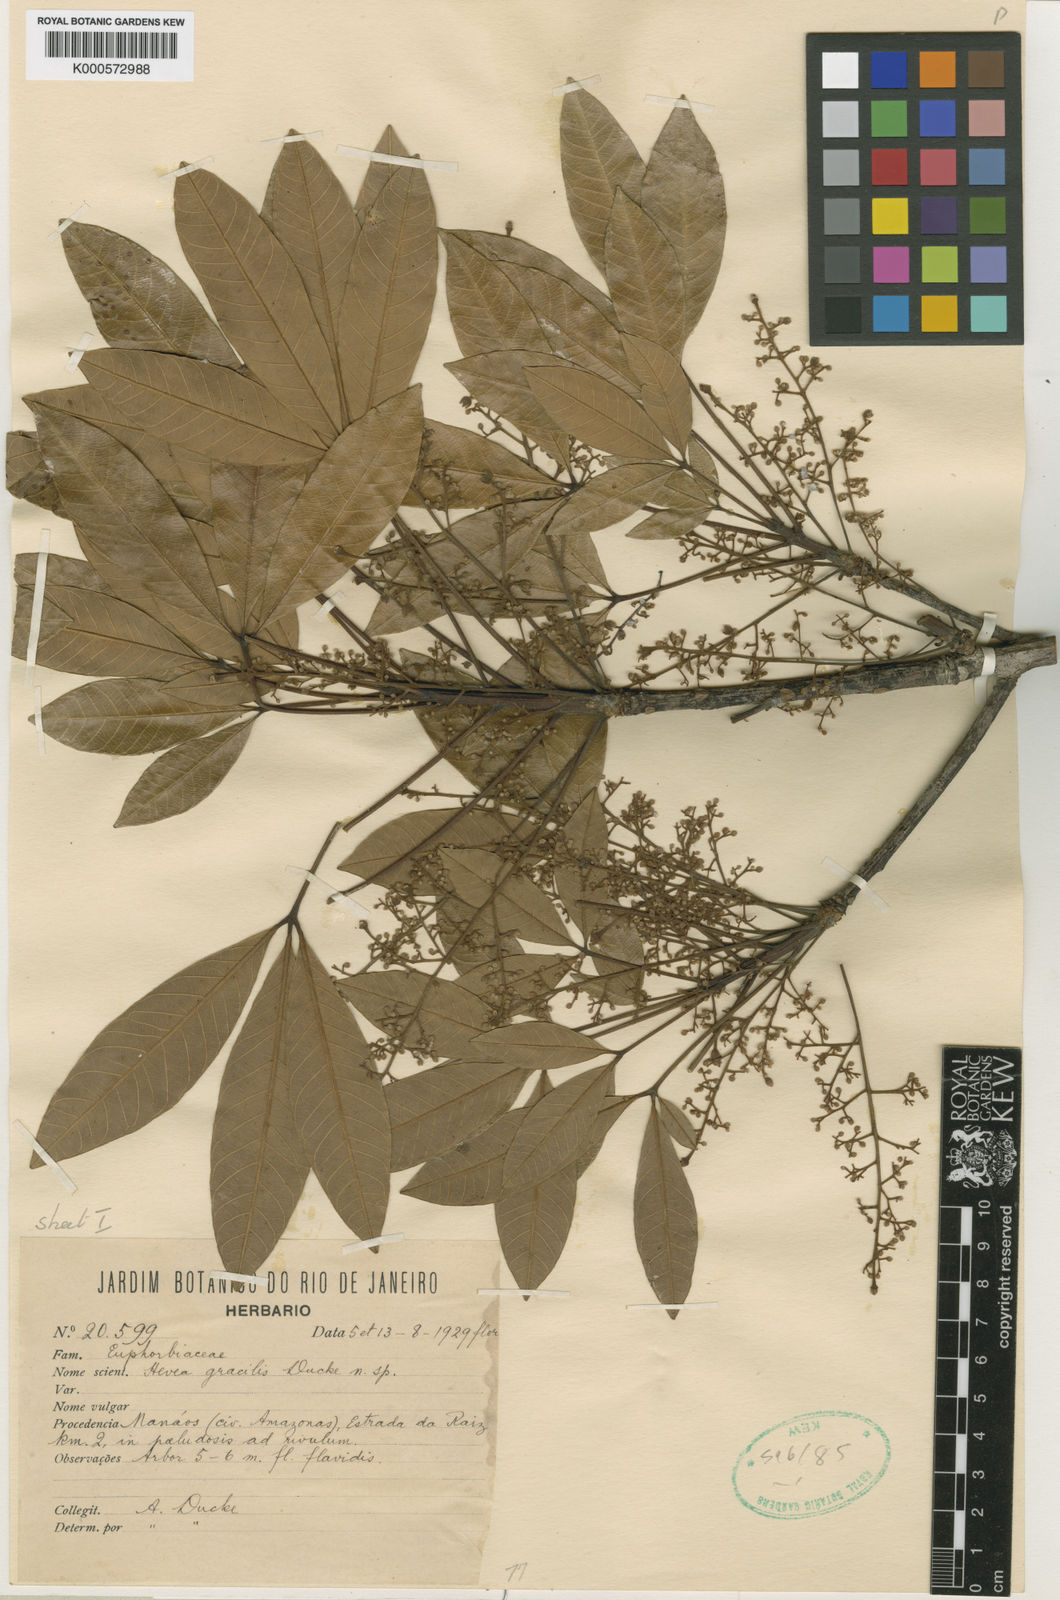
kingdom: Plantae
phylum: Tracheophyta
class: Magnoliopsida
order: Malpighiales
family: Euphorbiaceae
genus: Hevea
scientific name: Hevea gracilis
